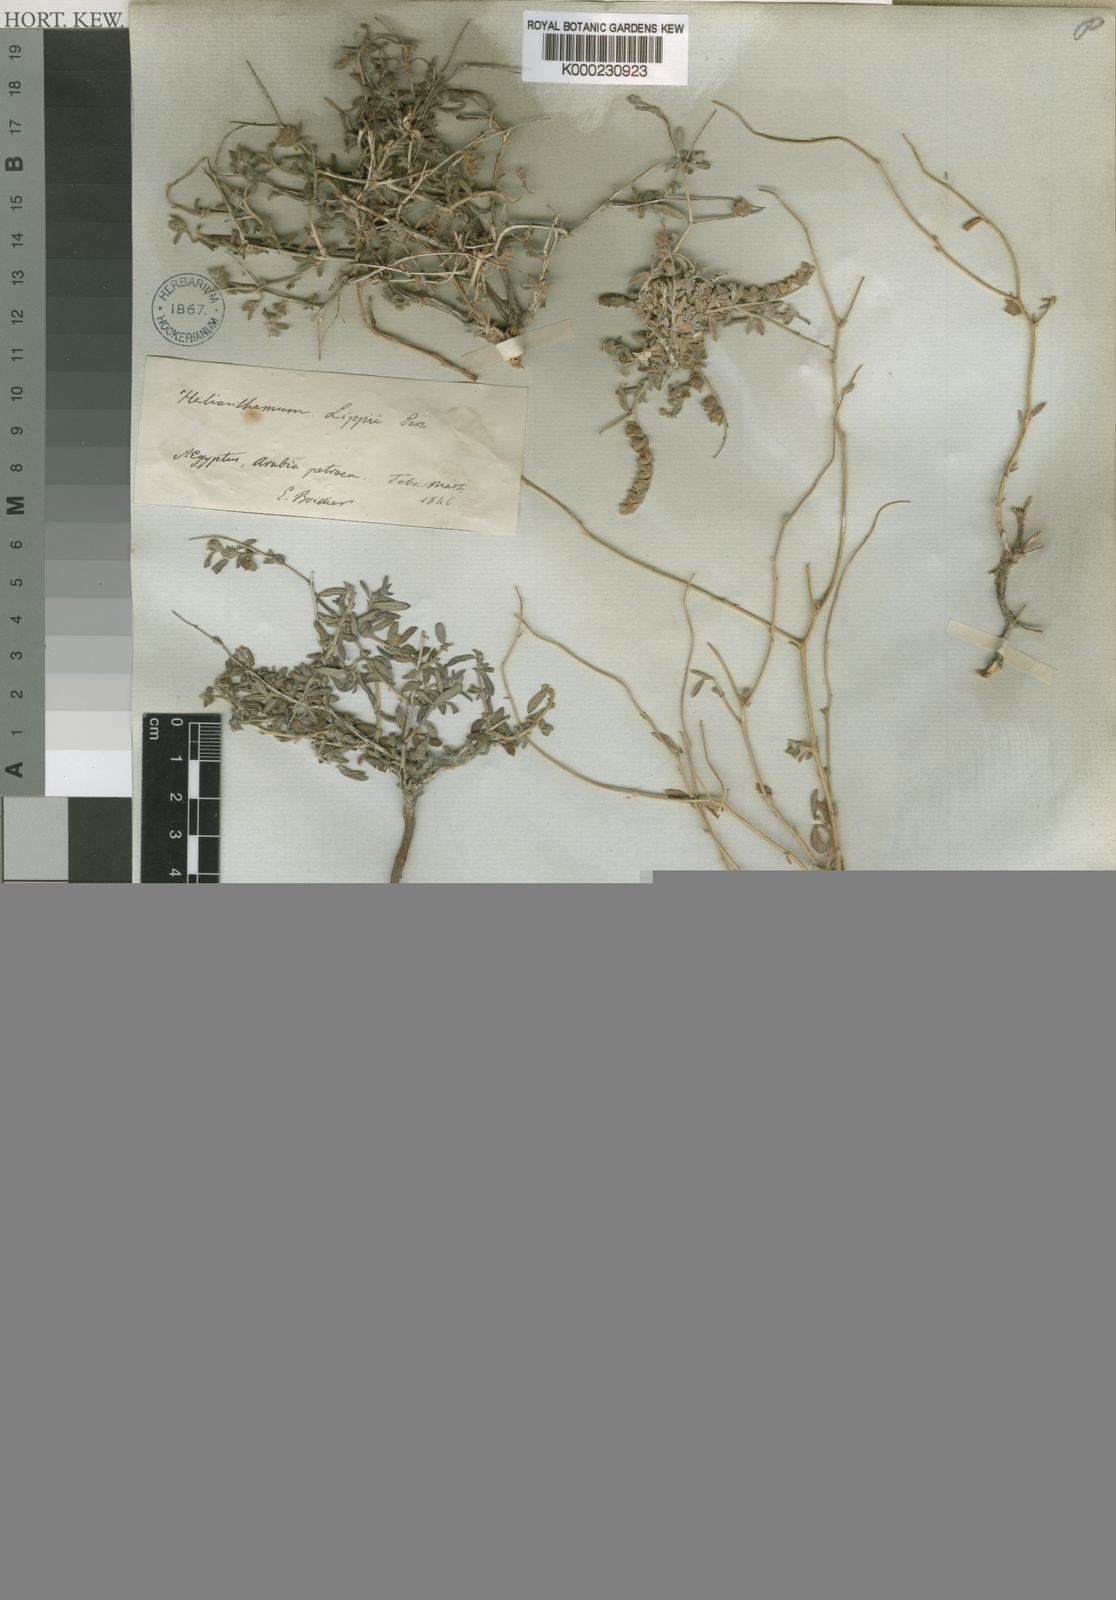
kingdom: Plantae
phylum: Tracheophyta
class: Magnoliopsida
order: Malvales
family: Cistaceae
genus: Helianthemum
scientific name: Helianthemum
